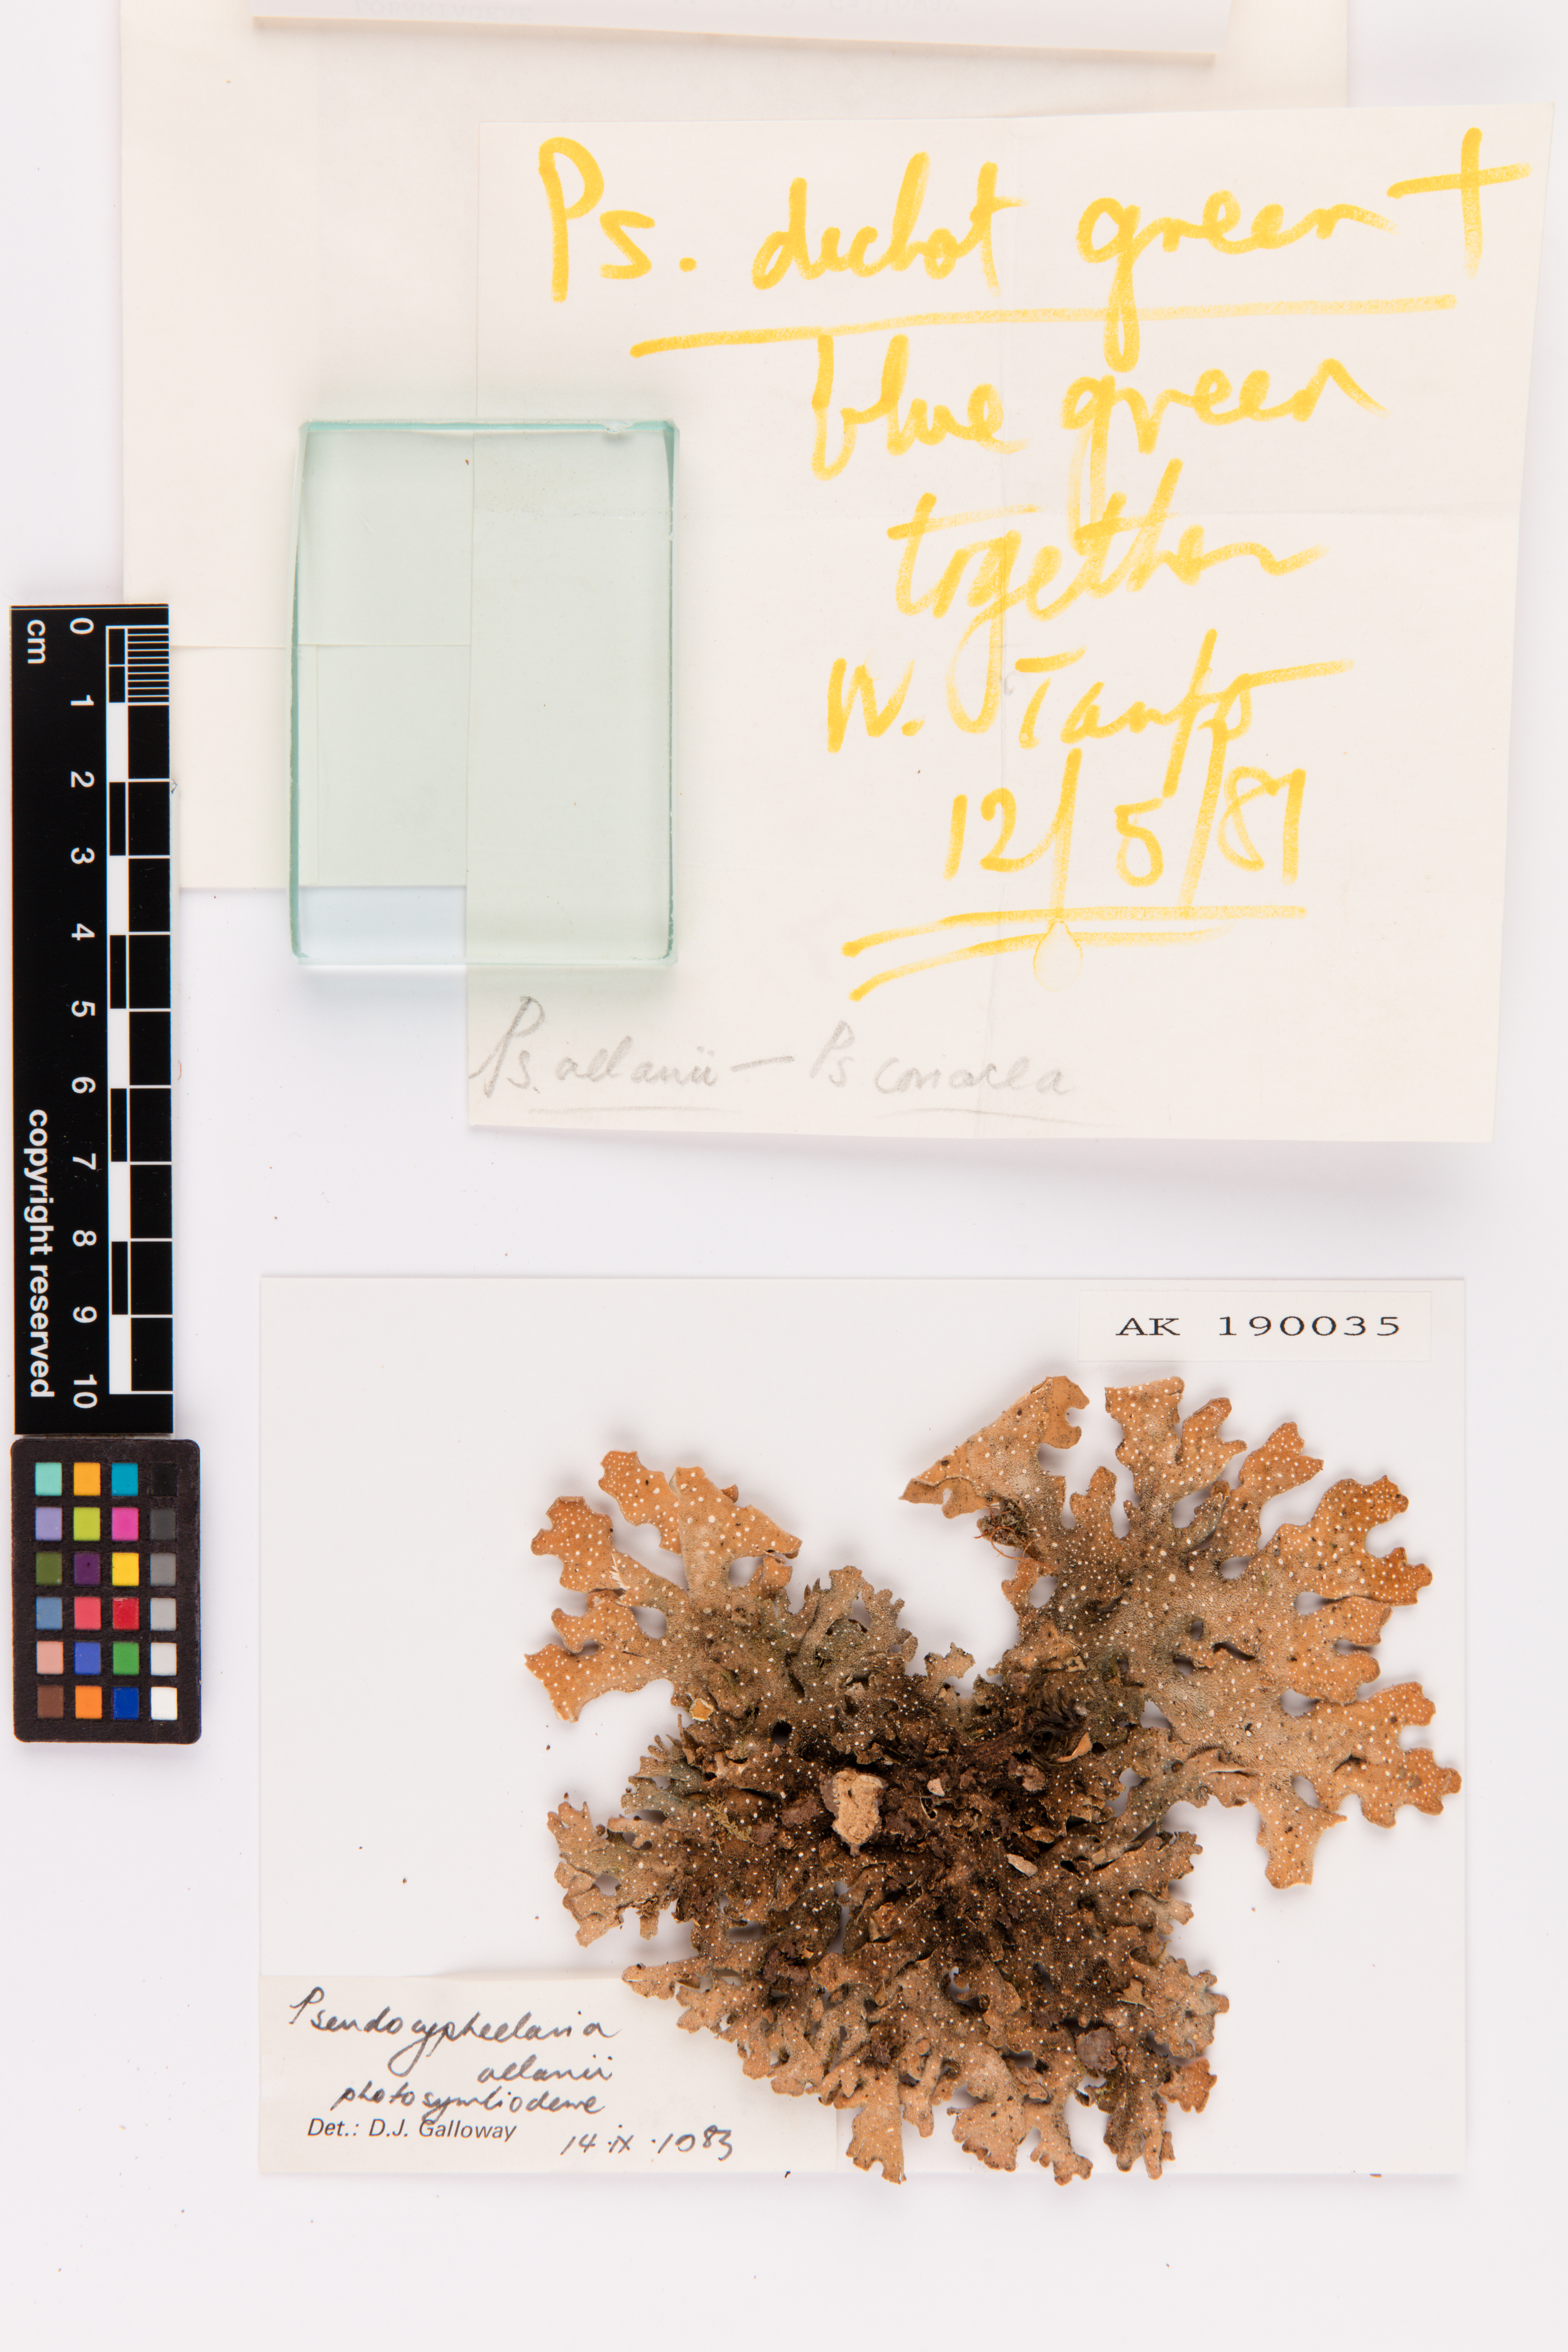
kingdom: Fungi
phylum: Ascomycota
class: Lecanoromycetes
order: Peltigerales
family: Lobariaceae
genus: Pseudocyphellaria
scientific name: Pseudocyphellaria allanii
